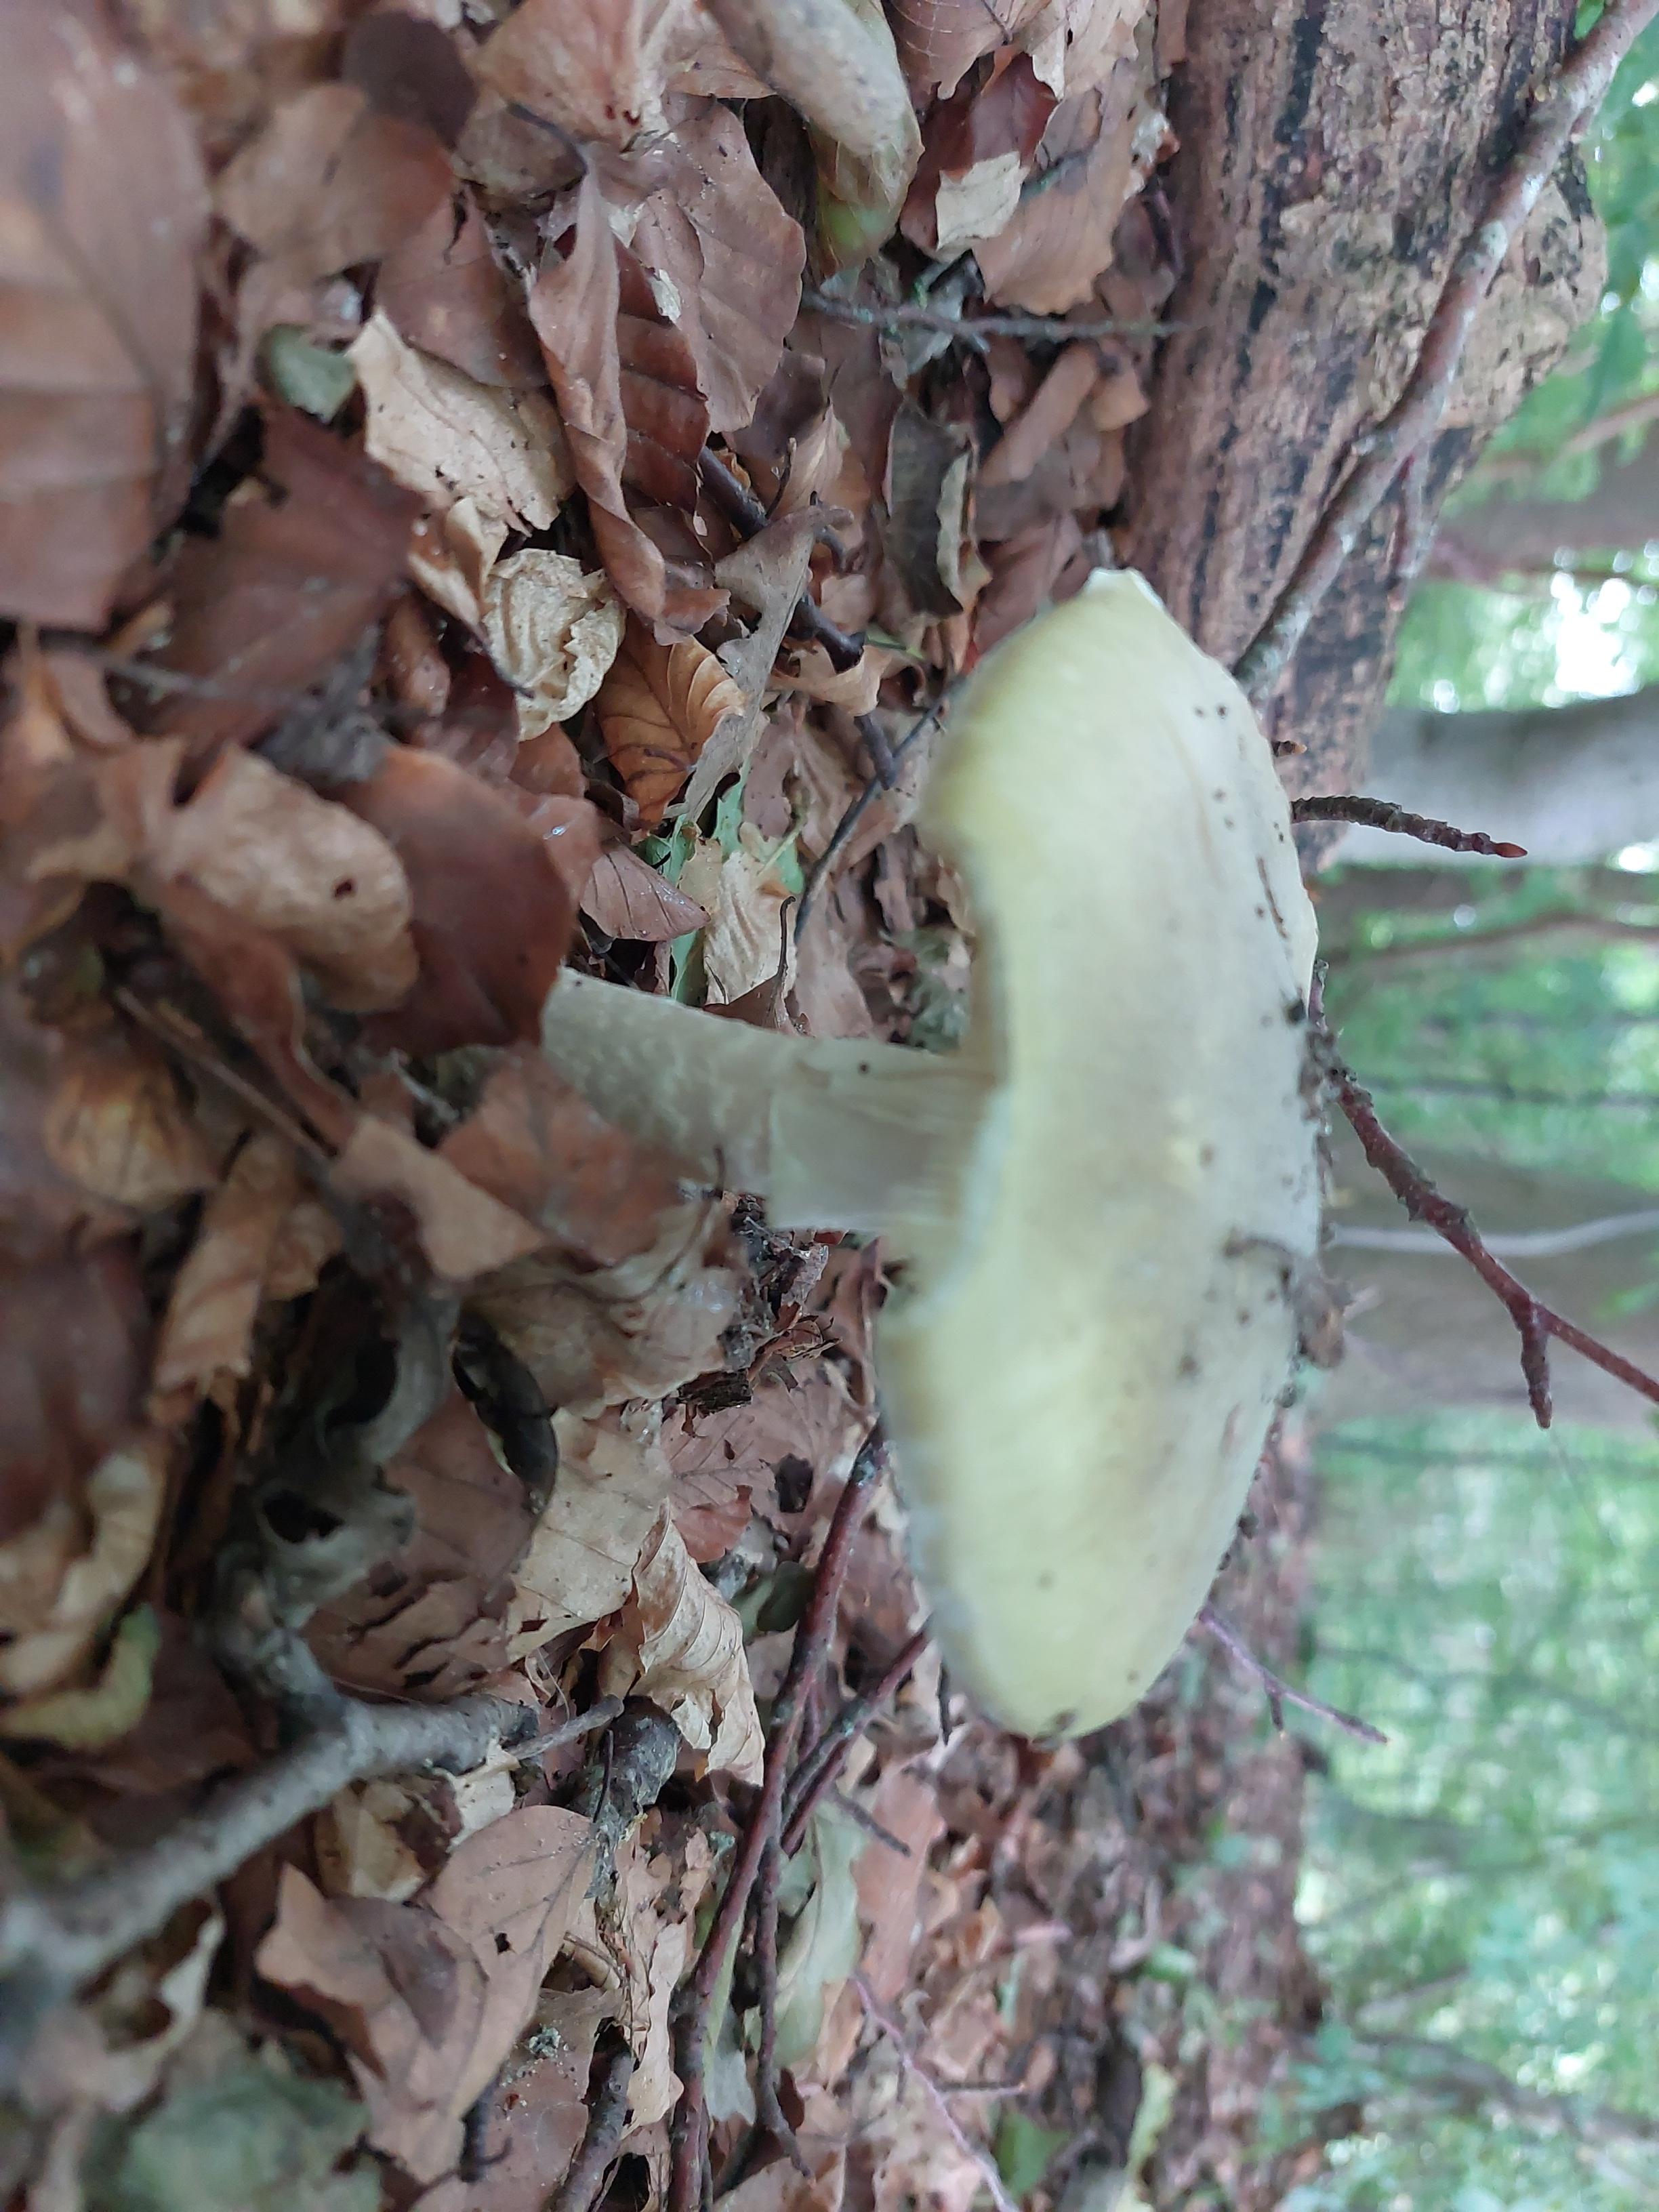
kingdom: Fungi
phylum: Basidiomycota
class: Agaricomycetes
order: Agaricales
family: Amanitaceae
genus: Amanita
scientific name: Amanita phalloides
